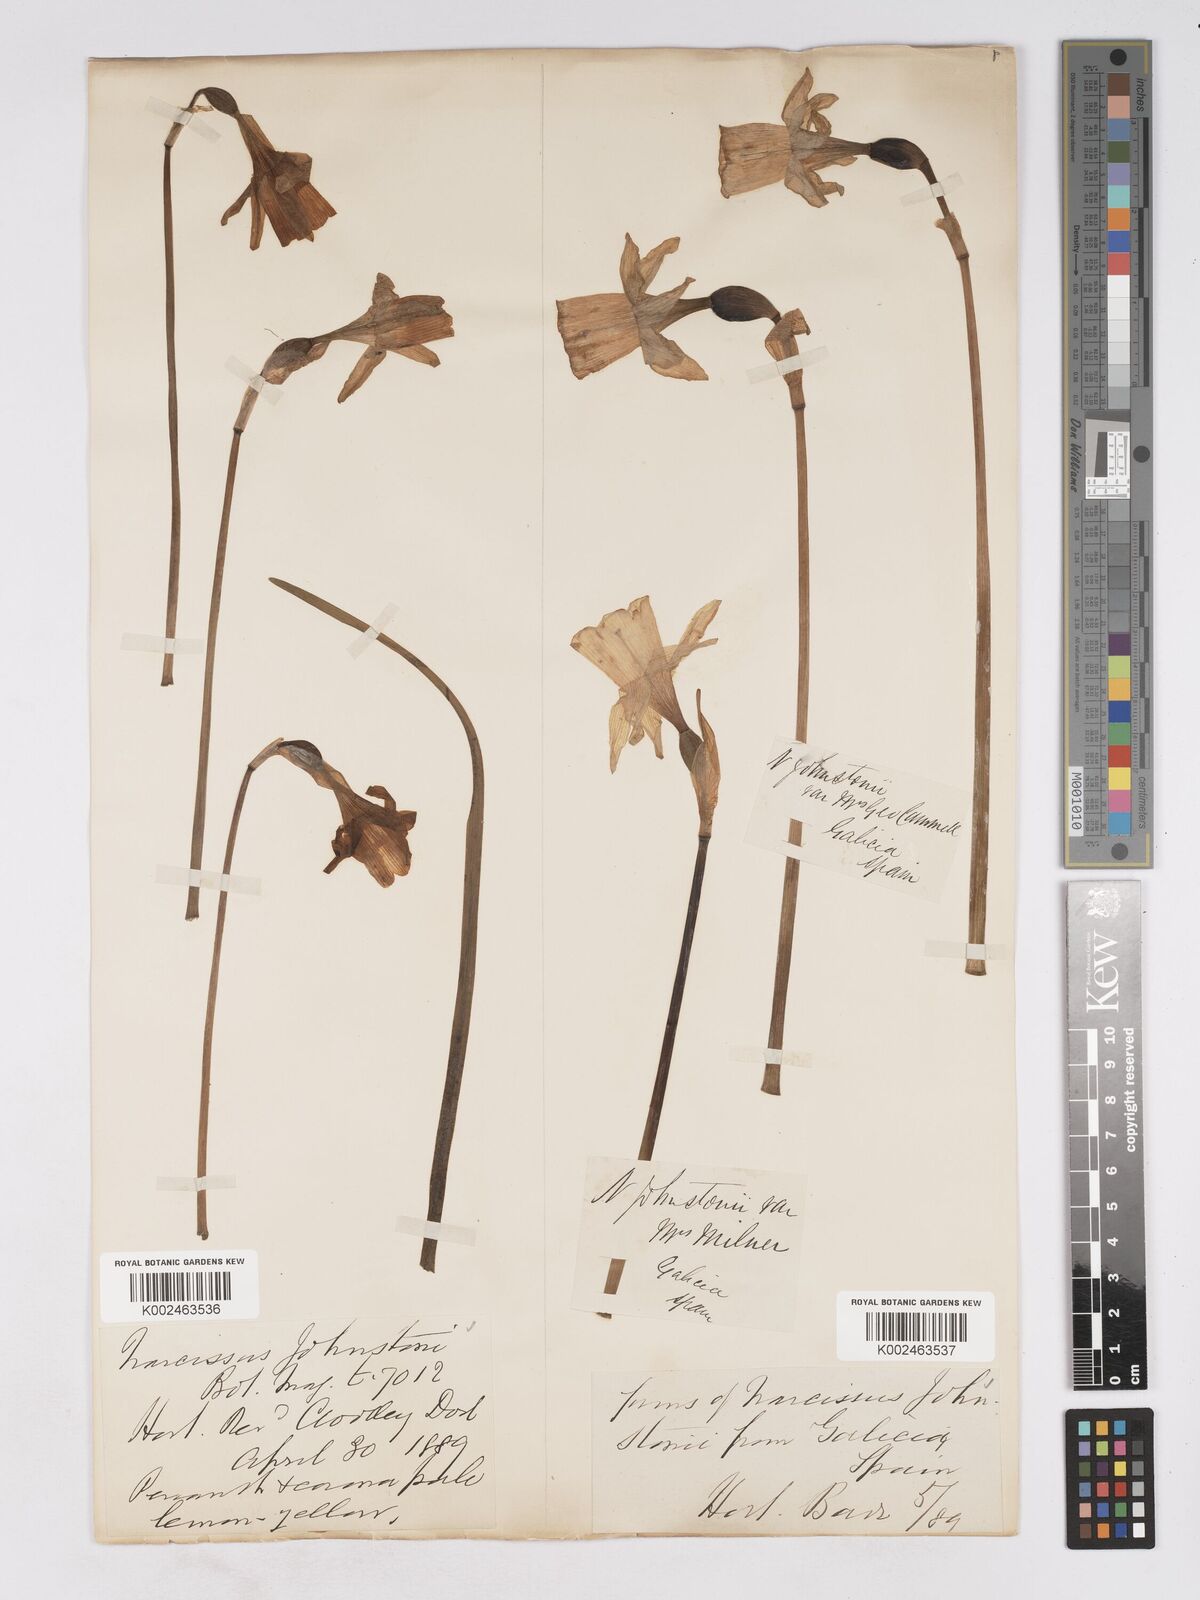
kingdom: Plantae
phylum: Tracheophyta
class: Liliopsida
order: Asparagales
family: Amaryllidaceae
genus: Narcissus
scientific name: Narcissus taitii
